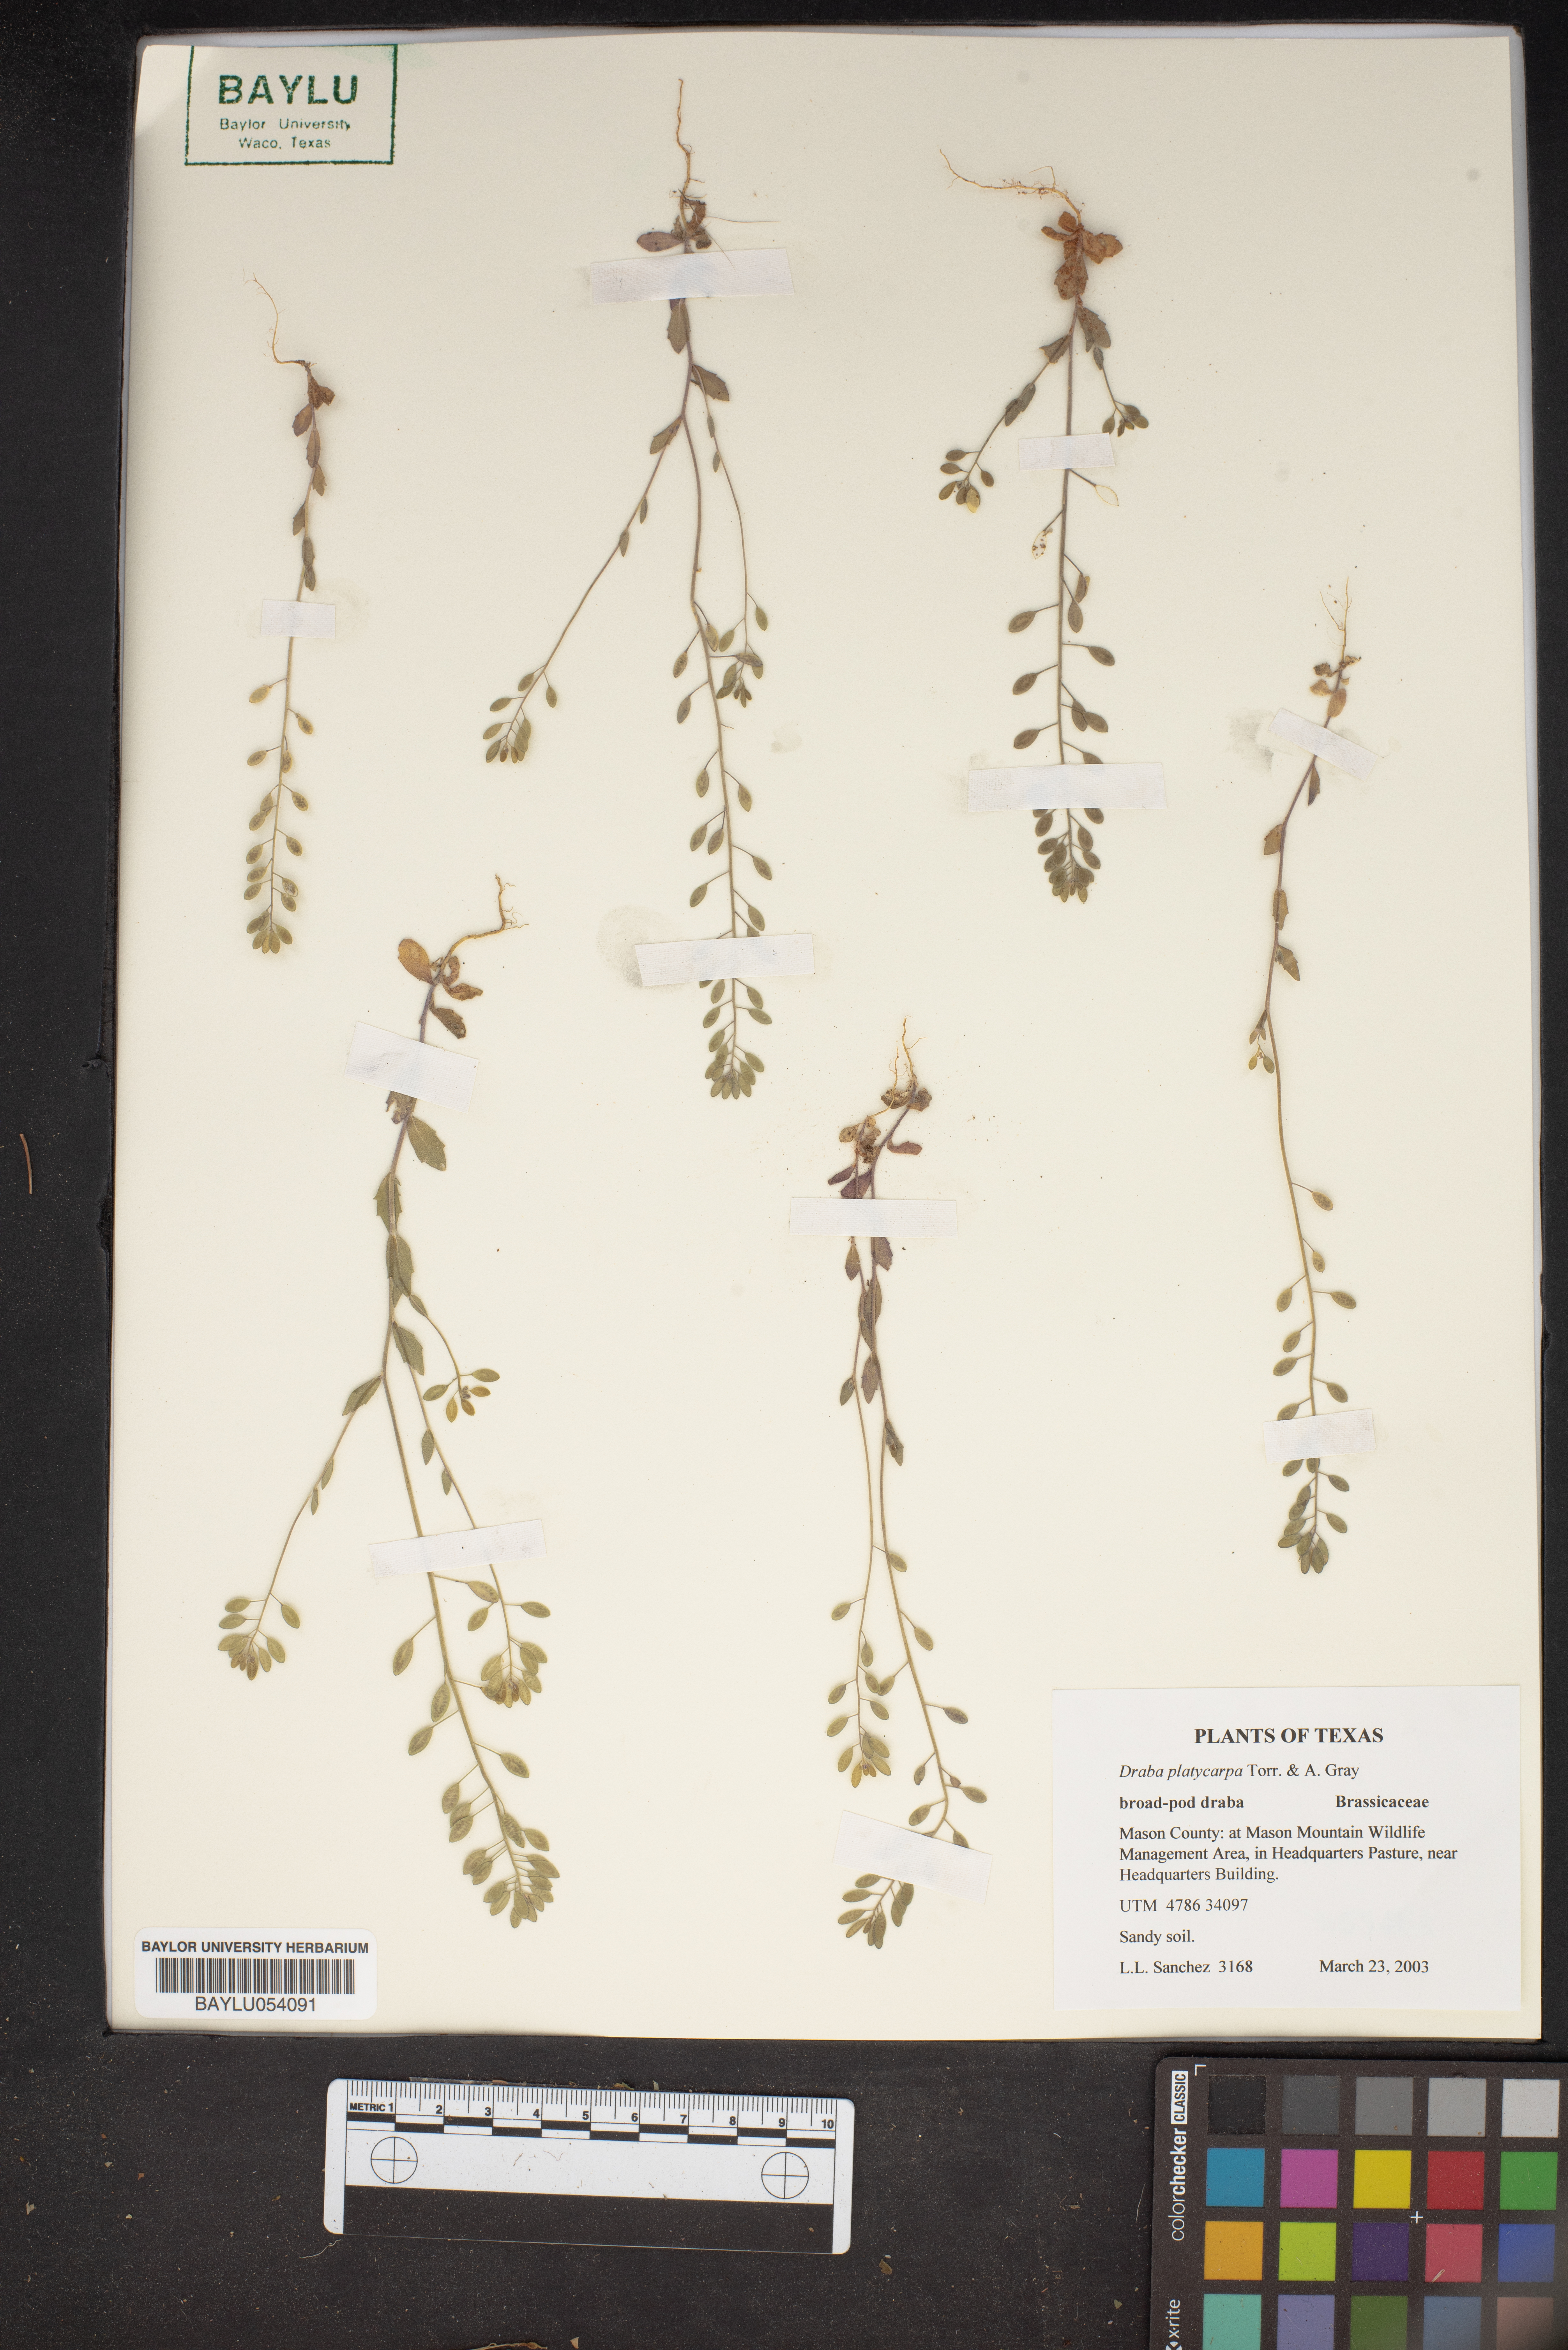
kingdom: Plantae
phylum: Tracheophyta
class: Magnoliopsida
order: Brassicales
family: Brassicaceae
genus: Tomostima
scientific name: Tomostima platycarpa
